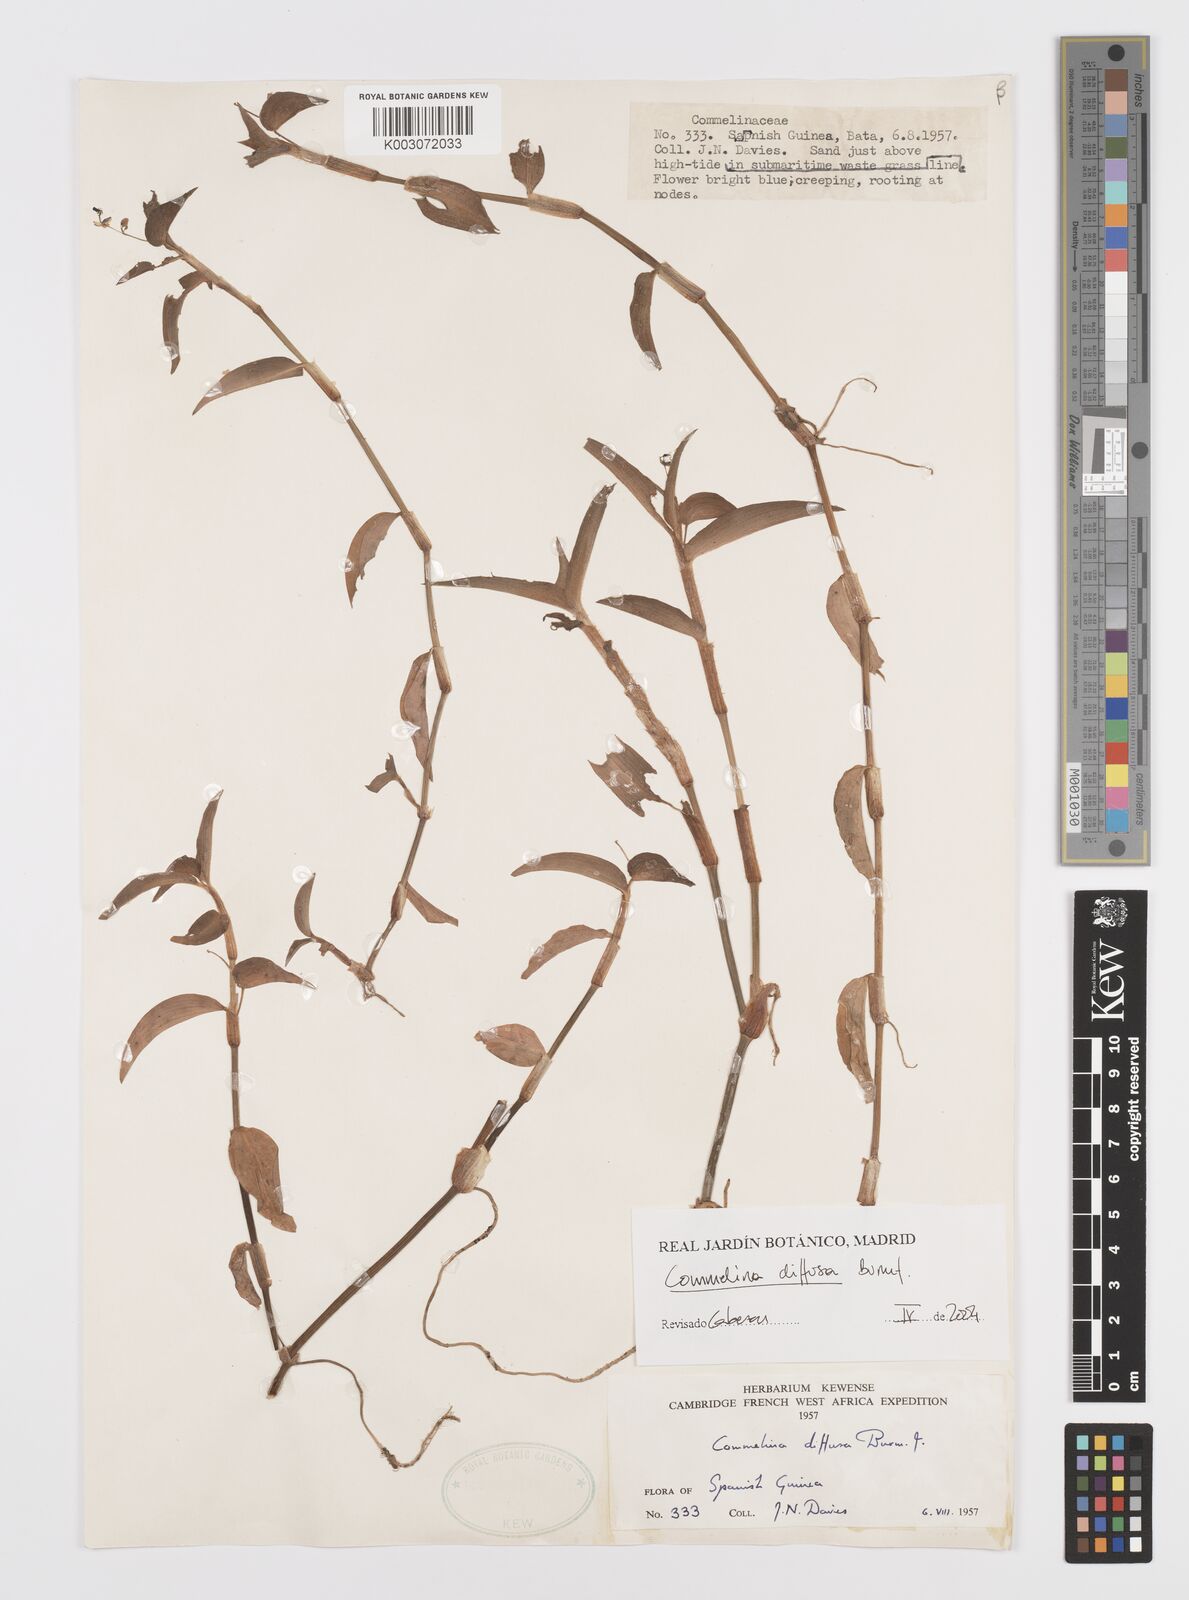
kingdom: Plantae
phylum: Tracheophyta
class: Liliopsida
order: Commelinales
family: Commelinaceae
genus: Commelina
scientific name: Commelina diffusa
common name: Climbing dayflower
